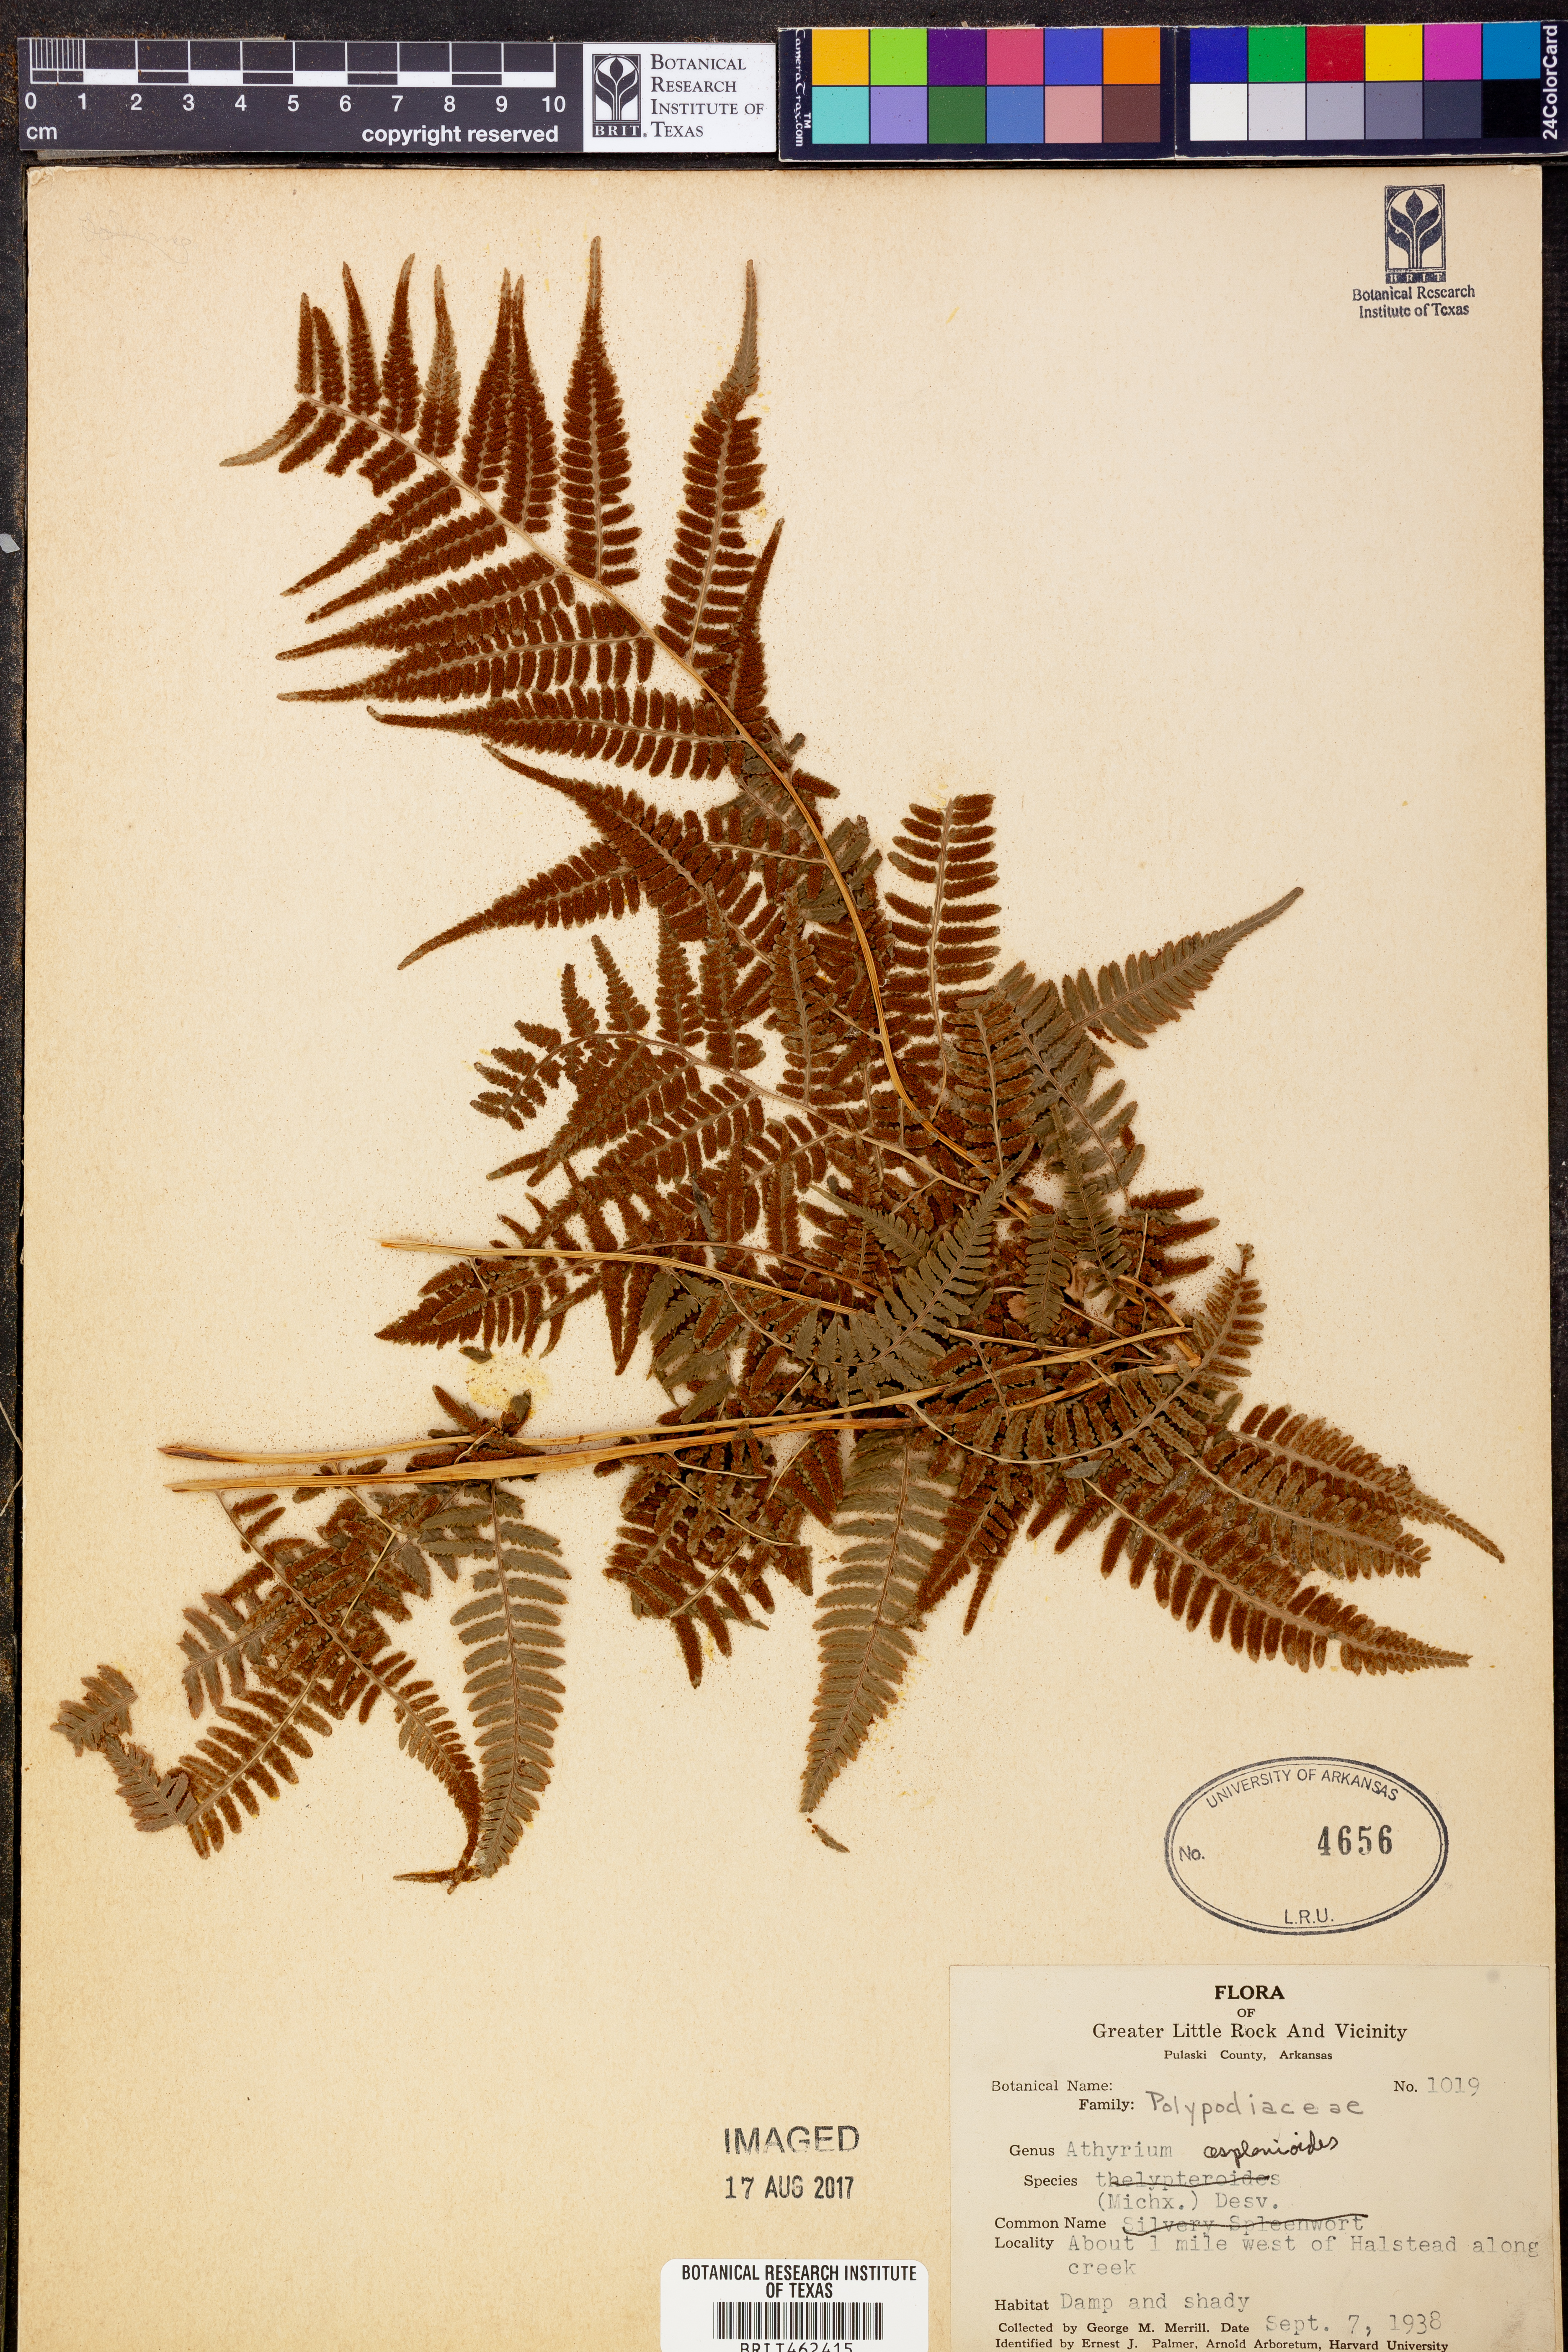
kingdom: Plantae
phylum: Tracheophyta
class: Polypodiopsida
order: Polypodiales
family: Athyriaceae
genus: Athyrium
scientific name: Athyrium asplenioides
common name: Southern lady fern
